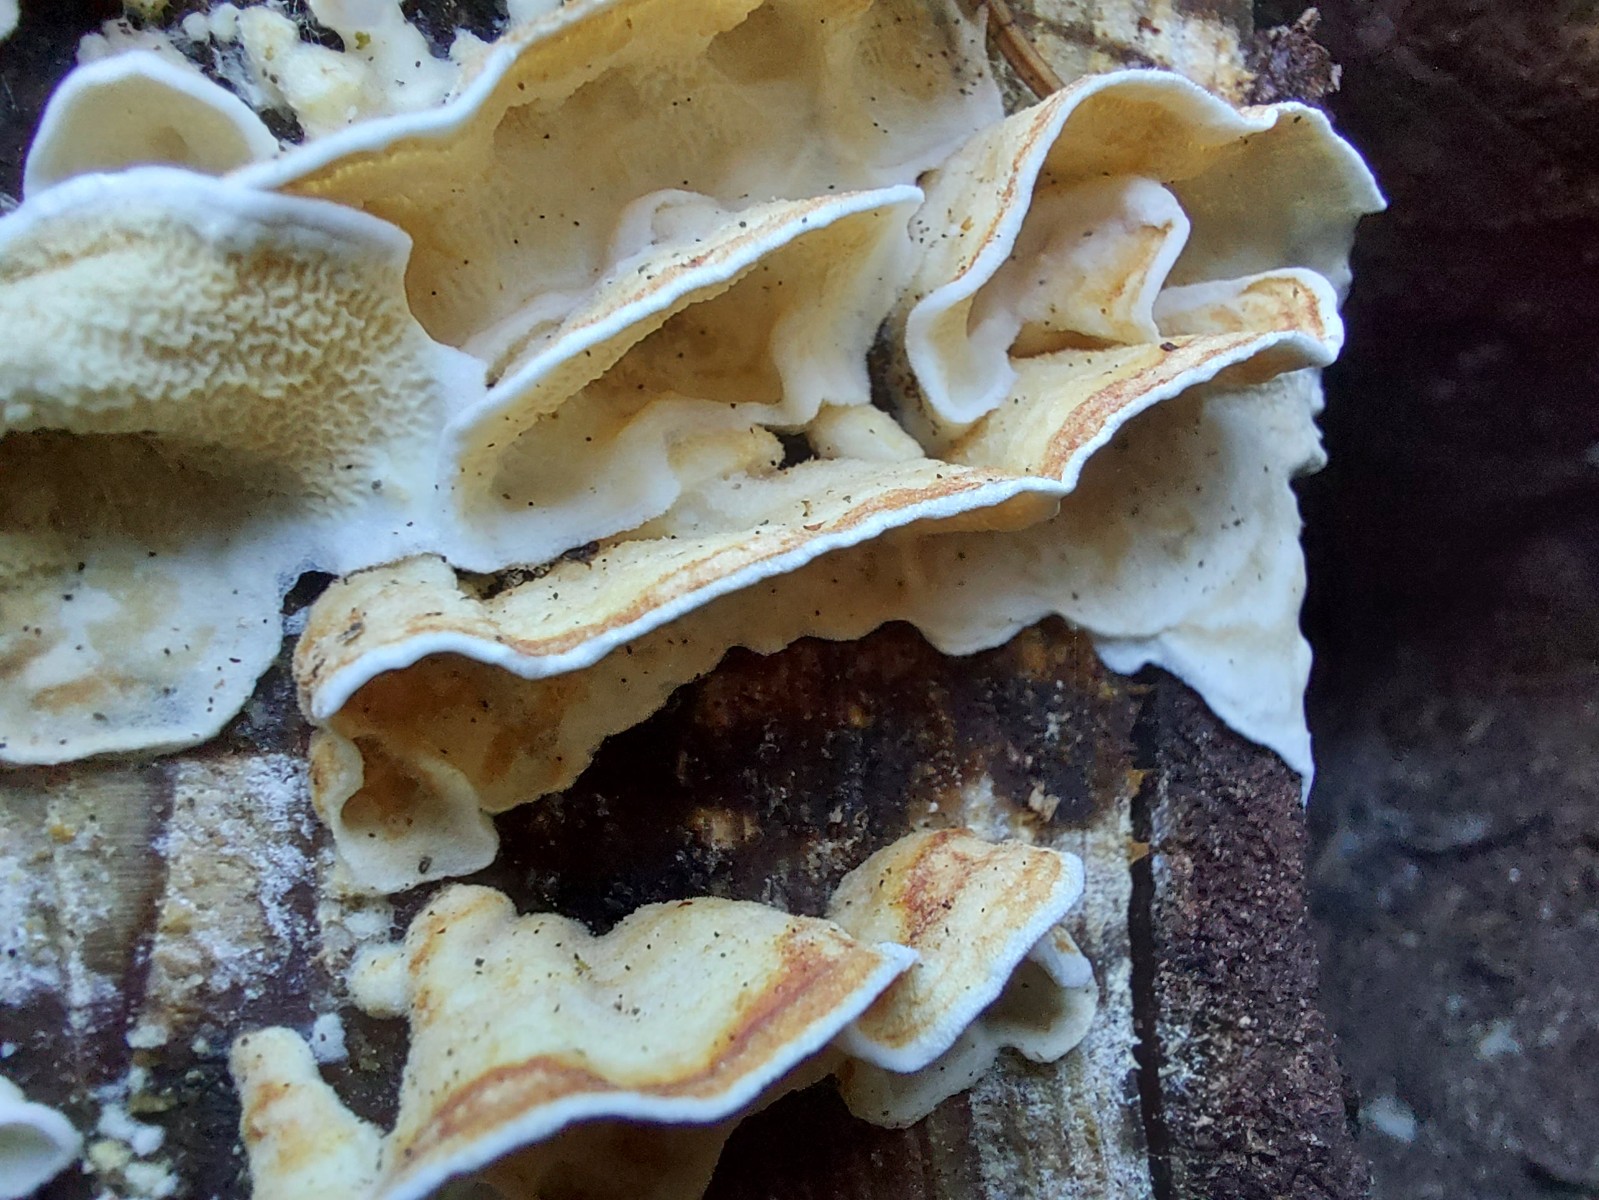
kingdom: Fungi
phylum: Basidiomycota
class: Agaricomycetes
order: Polyporales
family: Irpicaceae
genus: Byssomerulius
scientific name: Byssomerulius corium
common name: læder-åresvamp
